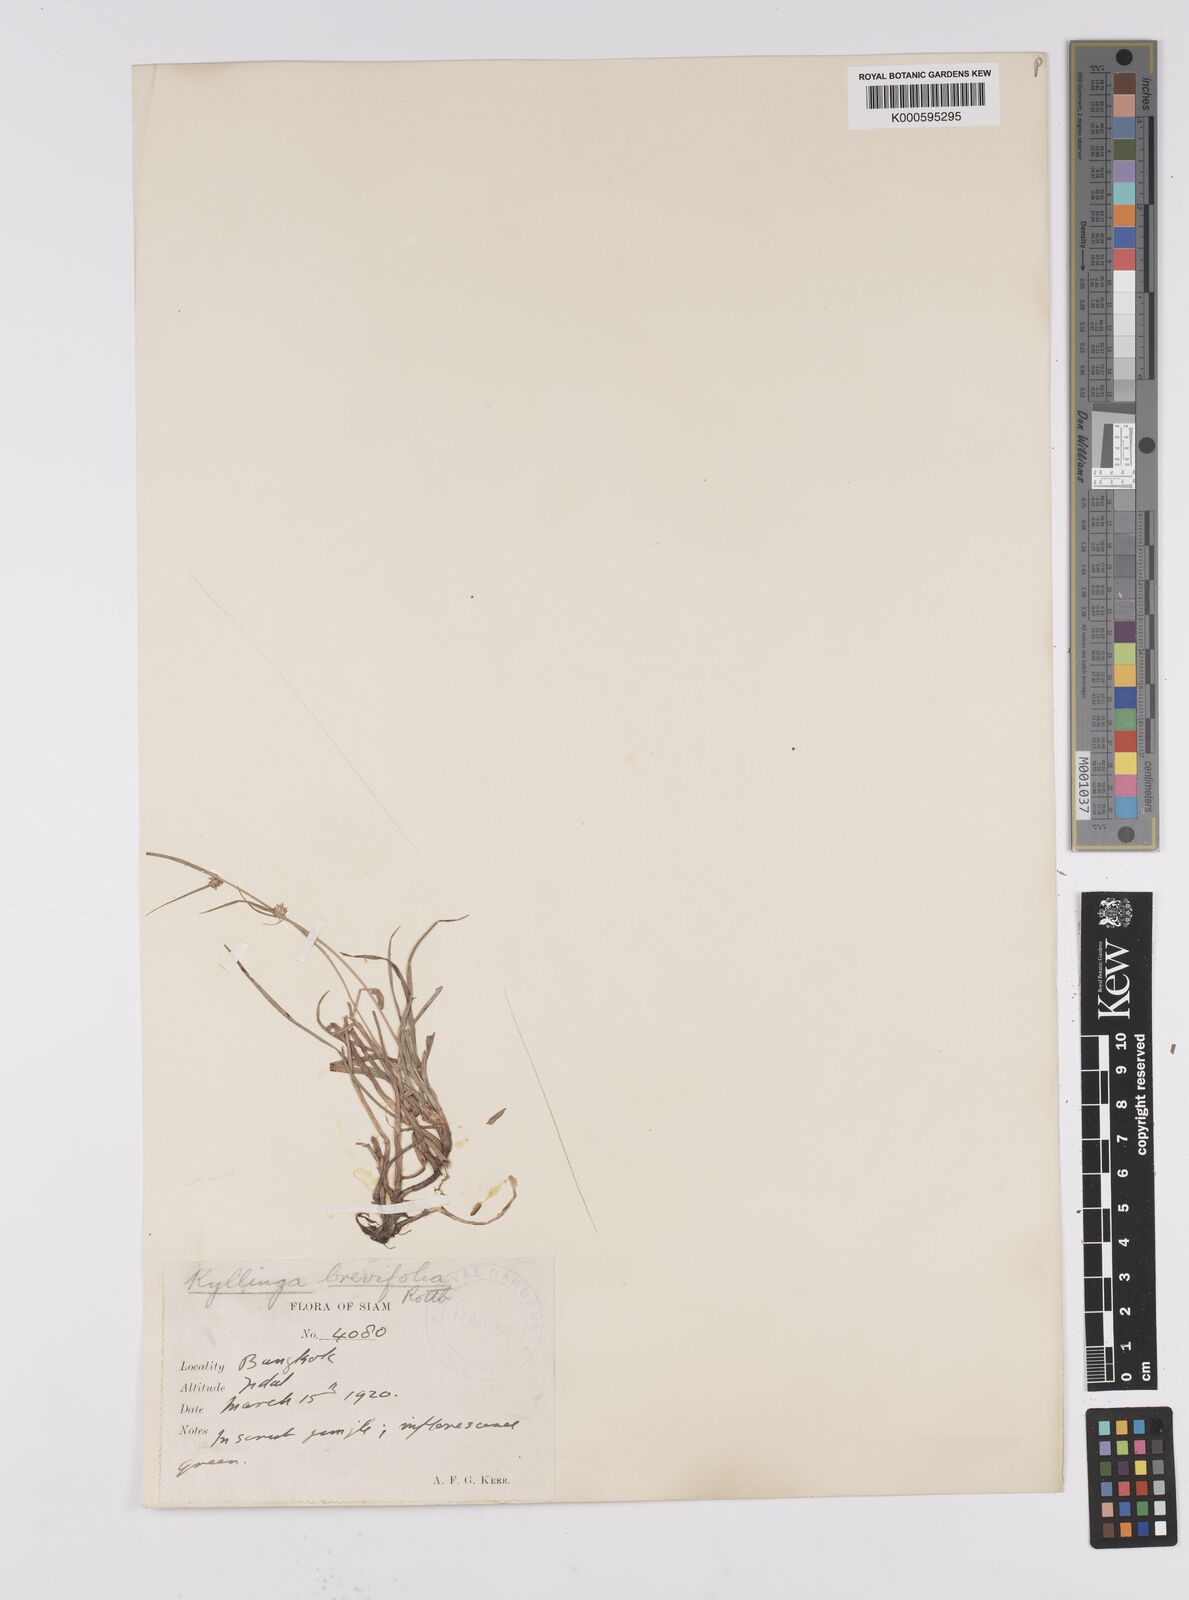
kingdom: Plantae
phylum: Tracheophyta
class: Liliopsida
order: Poales
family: Cyperaceae
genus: Cyperus
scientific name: Cyperus brevifolius
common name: Globe kyllinga
